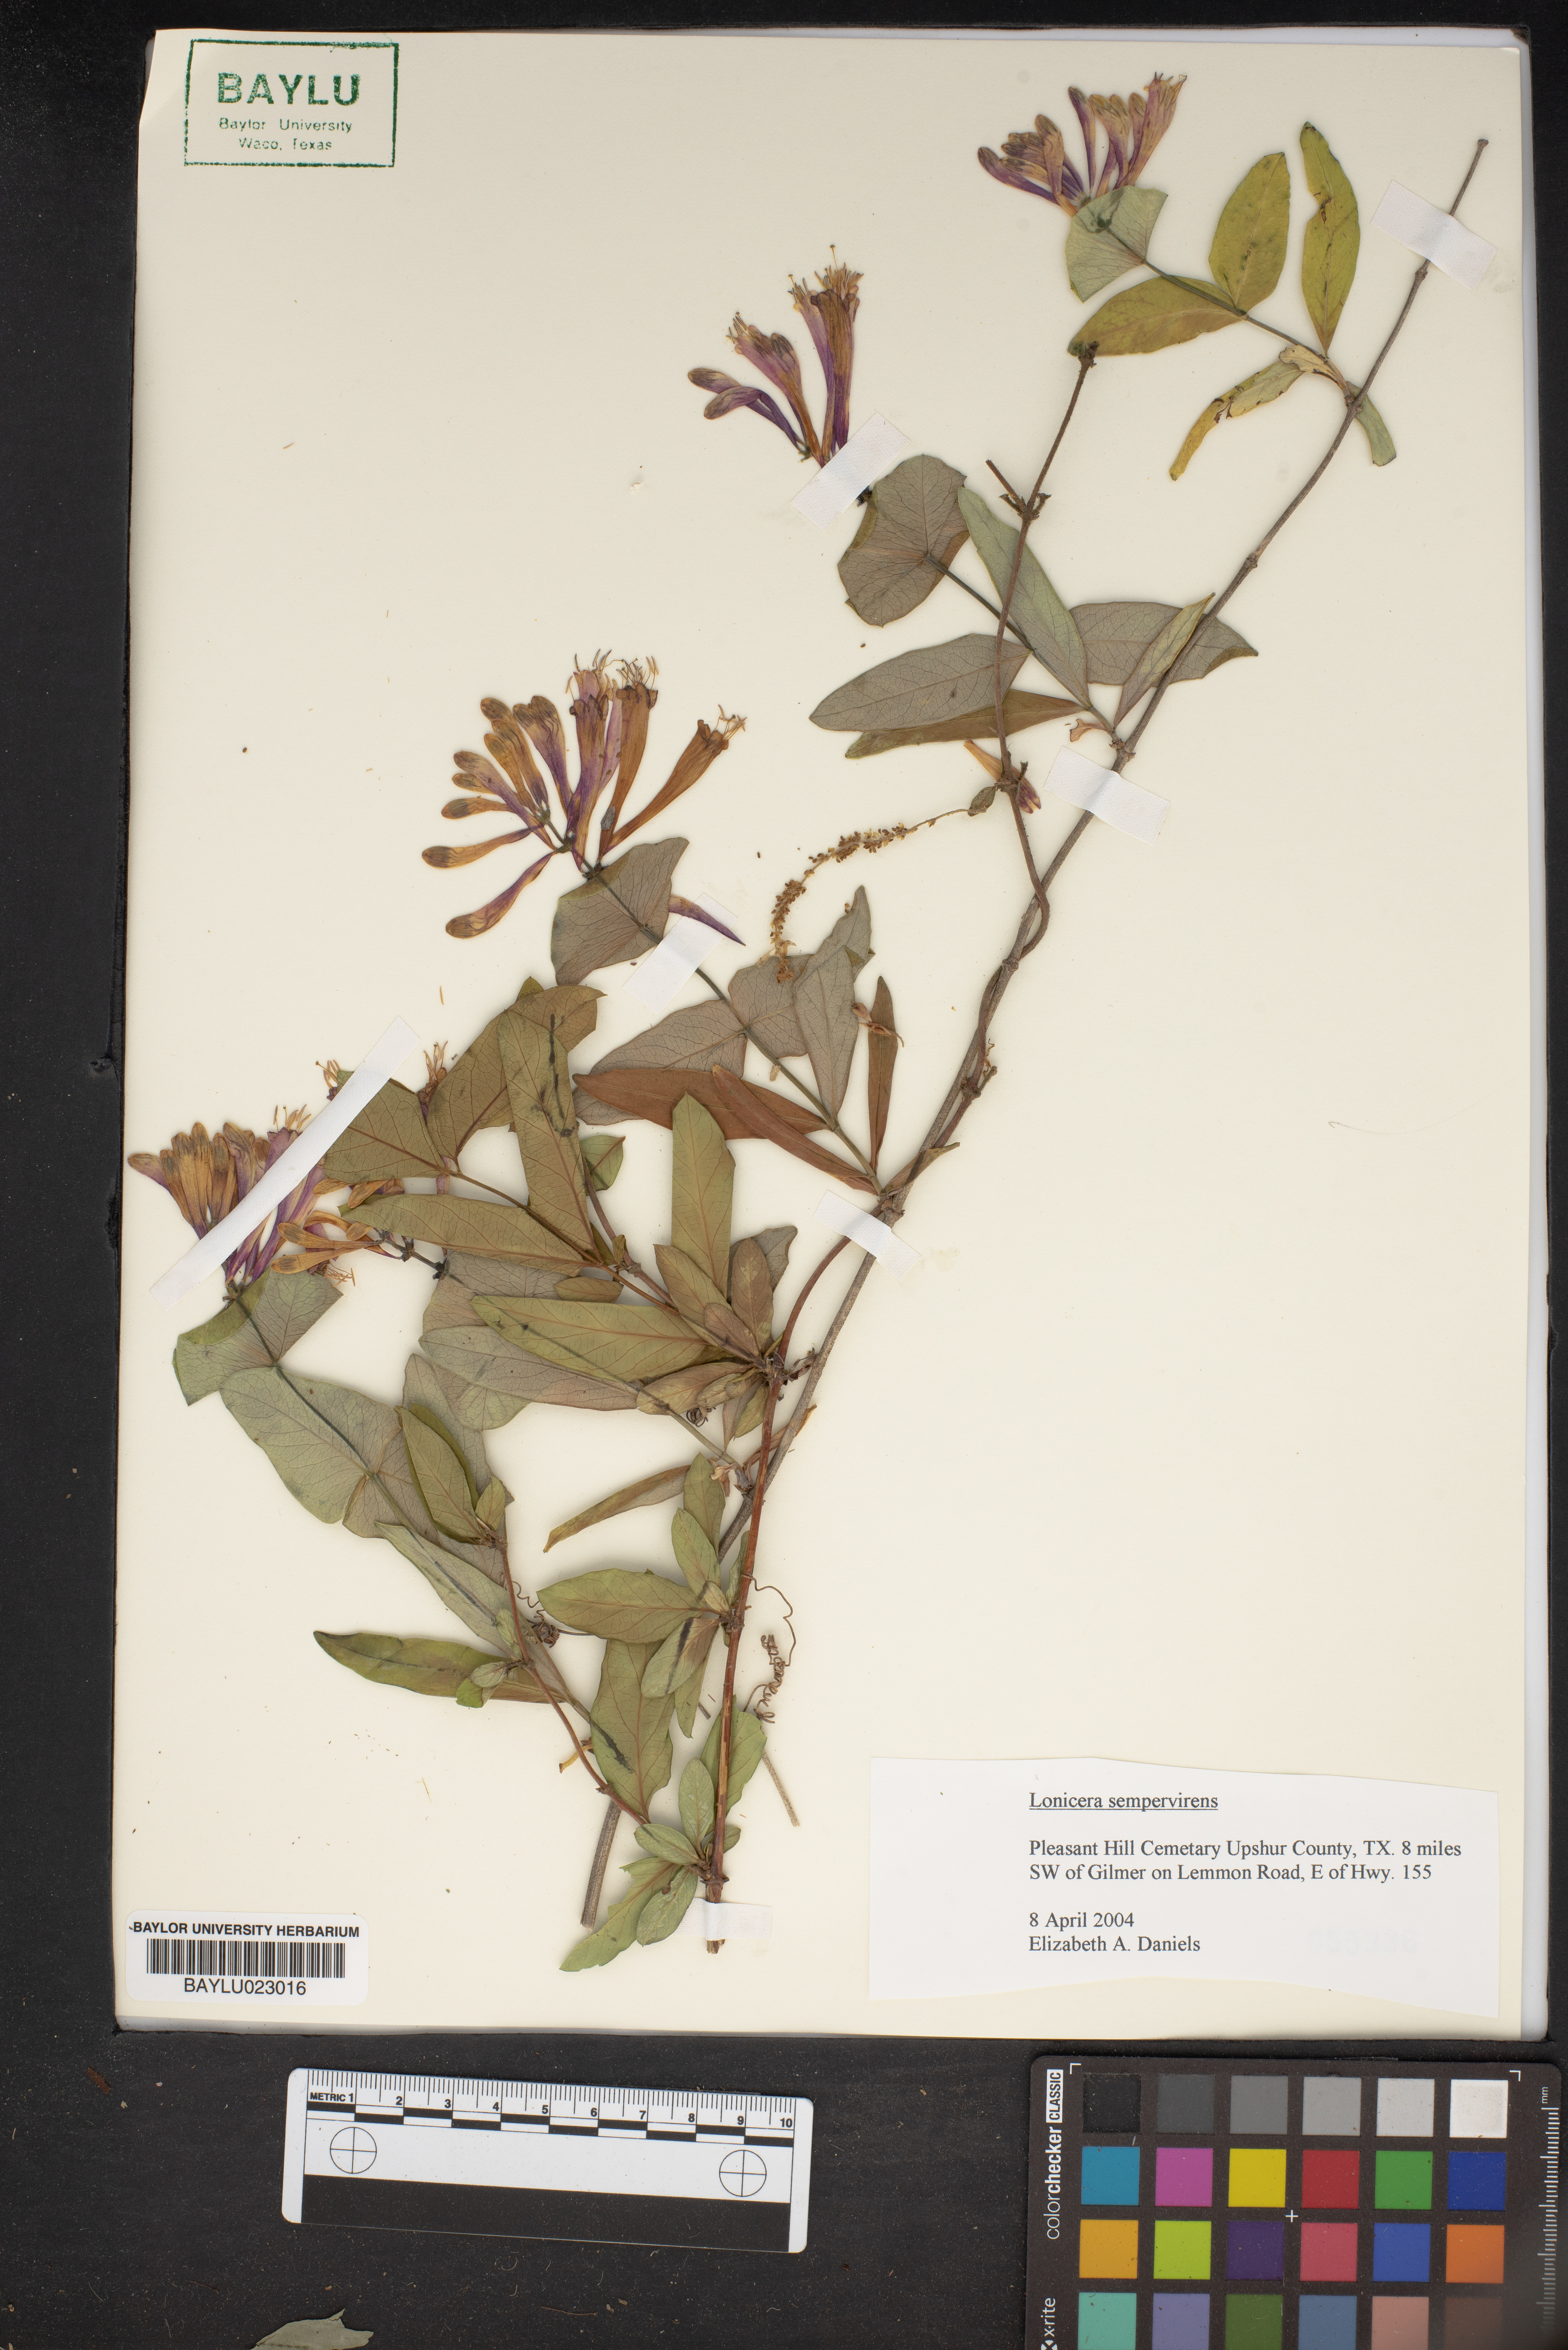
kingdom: Plantae
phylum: Tracheophyta
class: Magnoliopsida
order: Dipsacales
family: Caprifoliaceae
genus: Lonicera
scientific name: Lonicera sempervirens
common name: Coral honeysuckle
